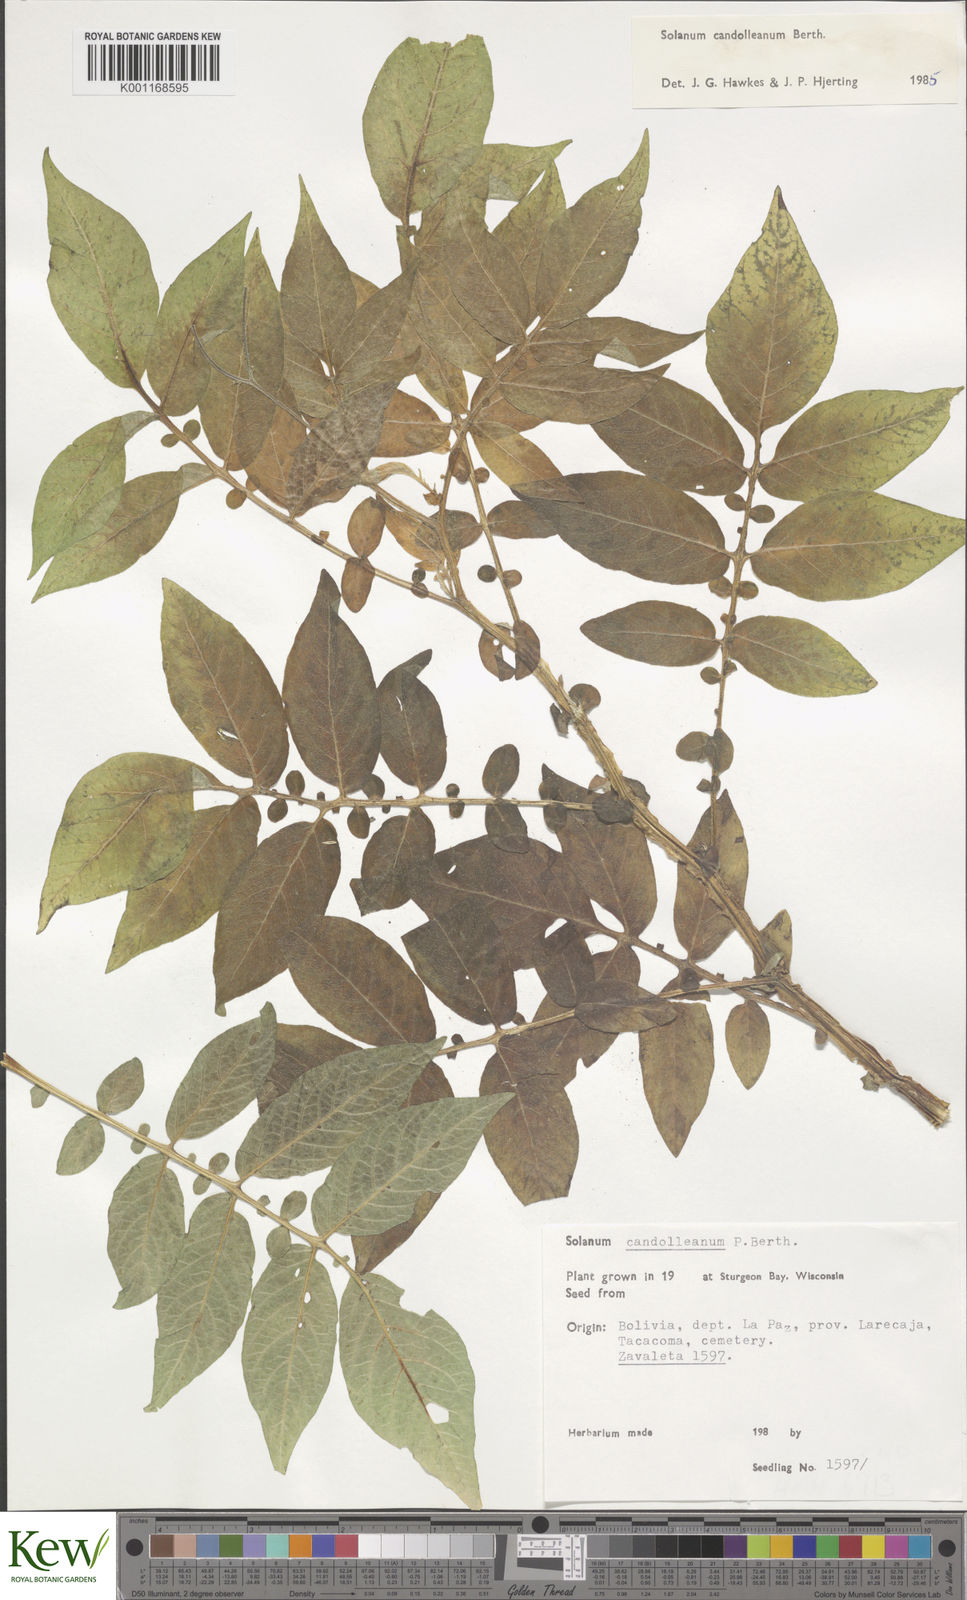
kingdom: Plantae
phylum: Tracheophyta
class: Magnoliopsida
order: Solanales
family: Solanaceae
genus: Solanum
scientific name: Solanum candolleanum
